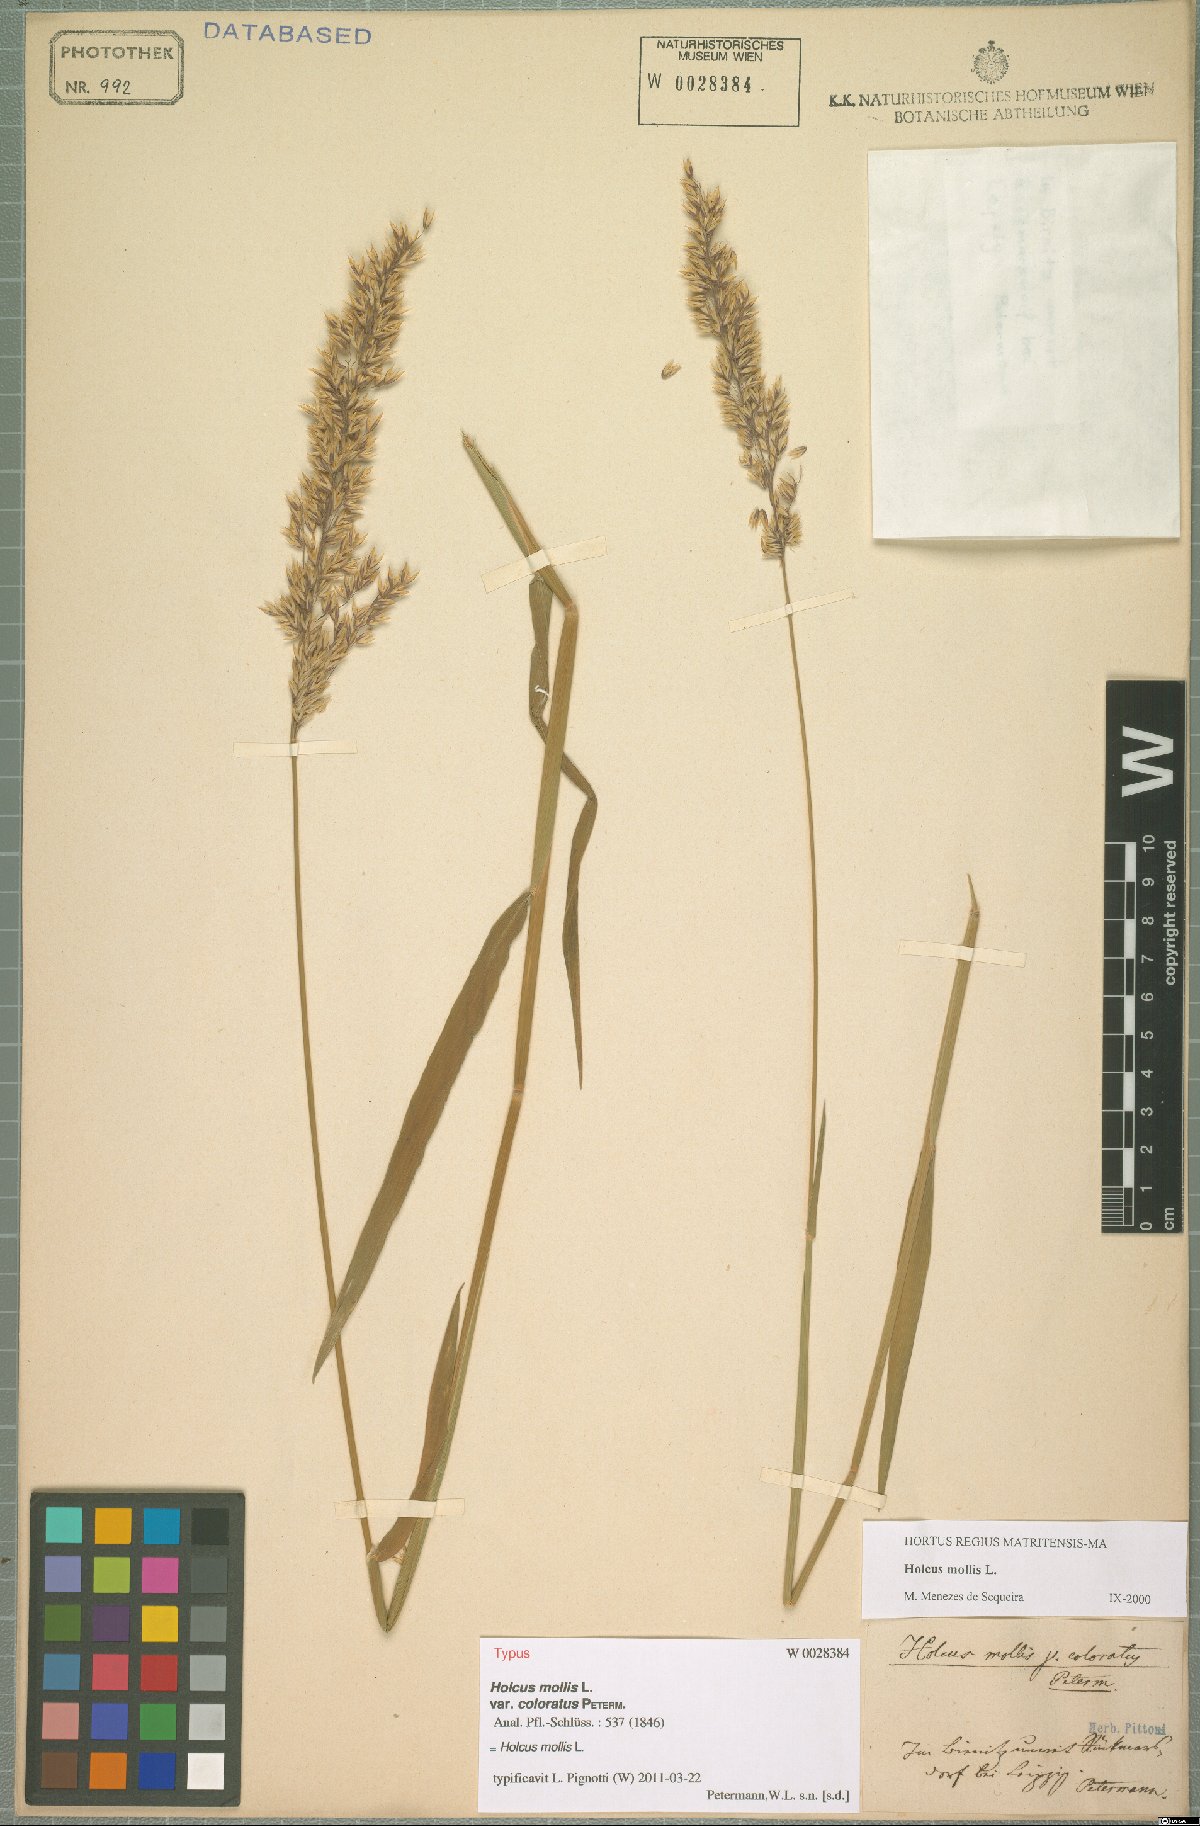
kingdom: Plantae
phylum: Tracheophyta
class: Liliopsida
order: Poales
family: Poaceae
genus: Holcus
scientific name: Holcus mollis
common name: Creeping velvetgrass
